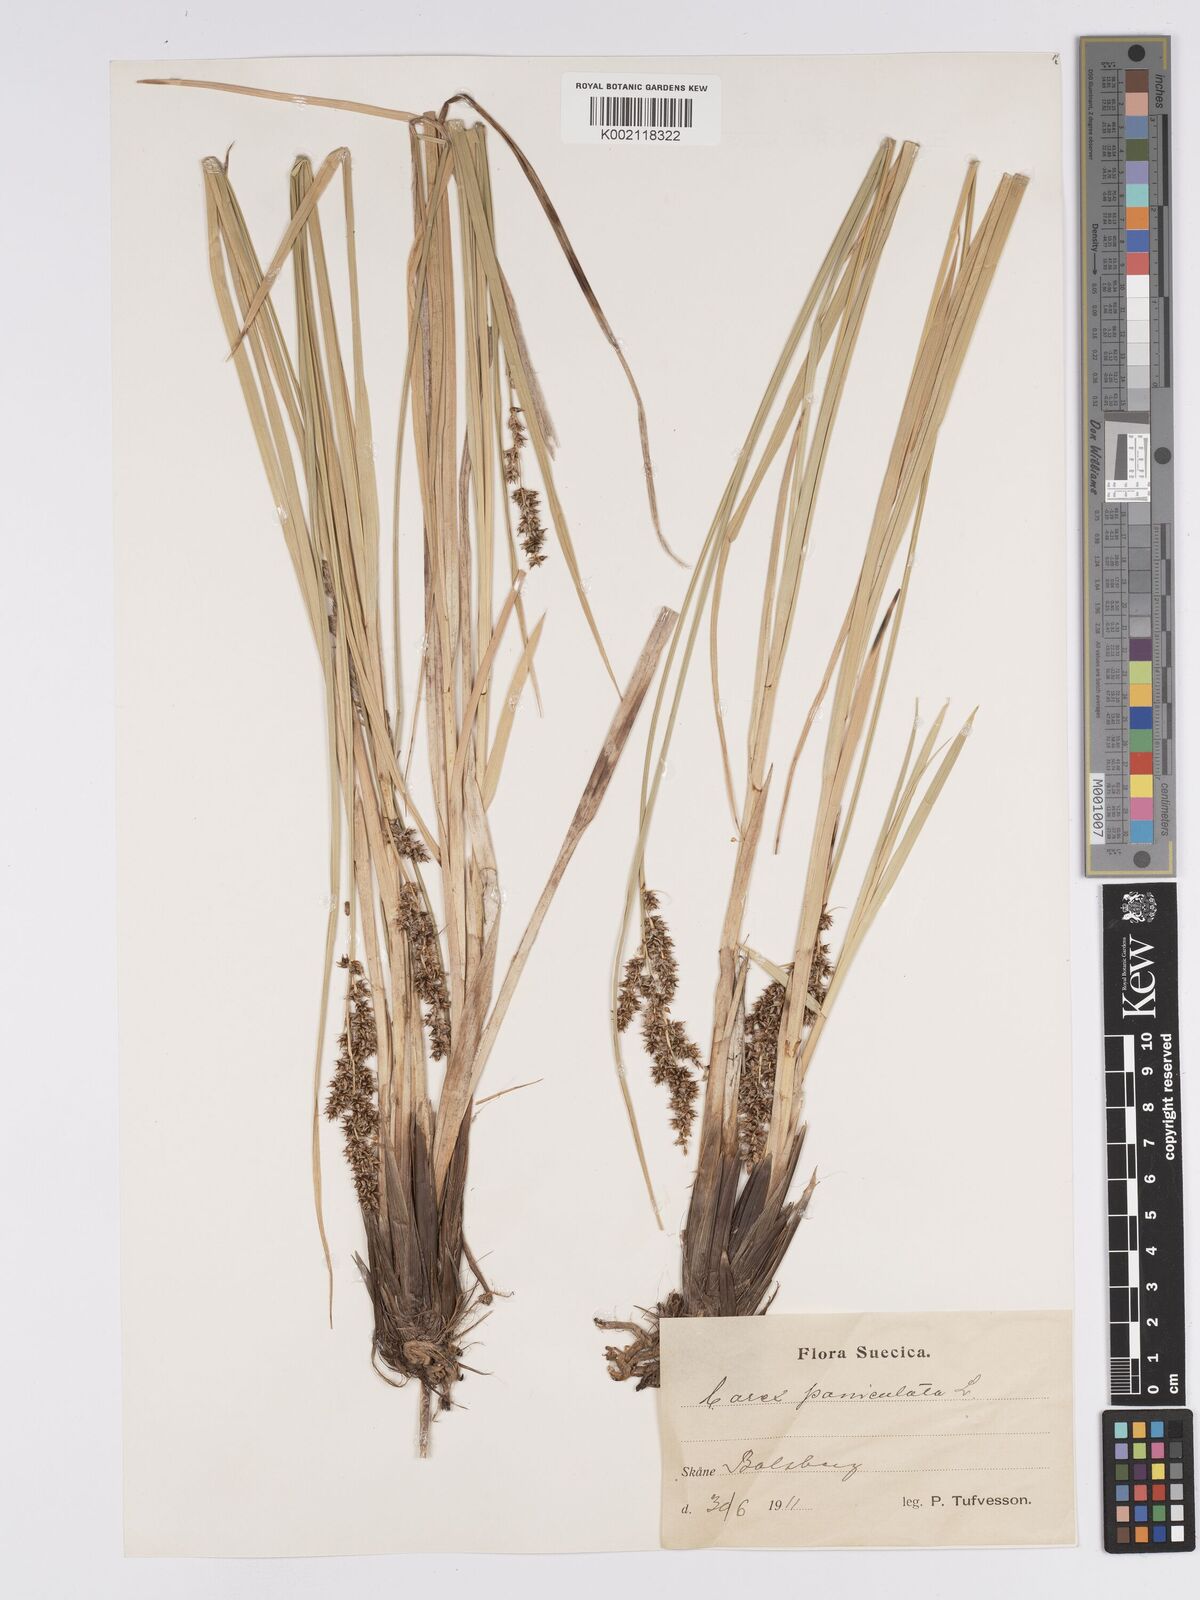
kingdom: Plantae
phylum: Tracheophyta
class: Liliopsida
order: Poales
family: Cyperaceae
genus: Carex
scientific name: Carex paniculata
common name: Greater tussock-sedge
